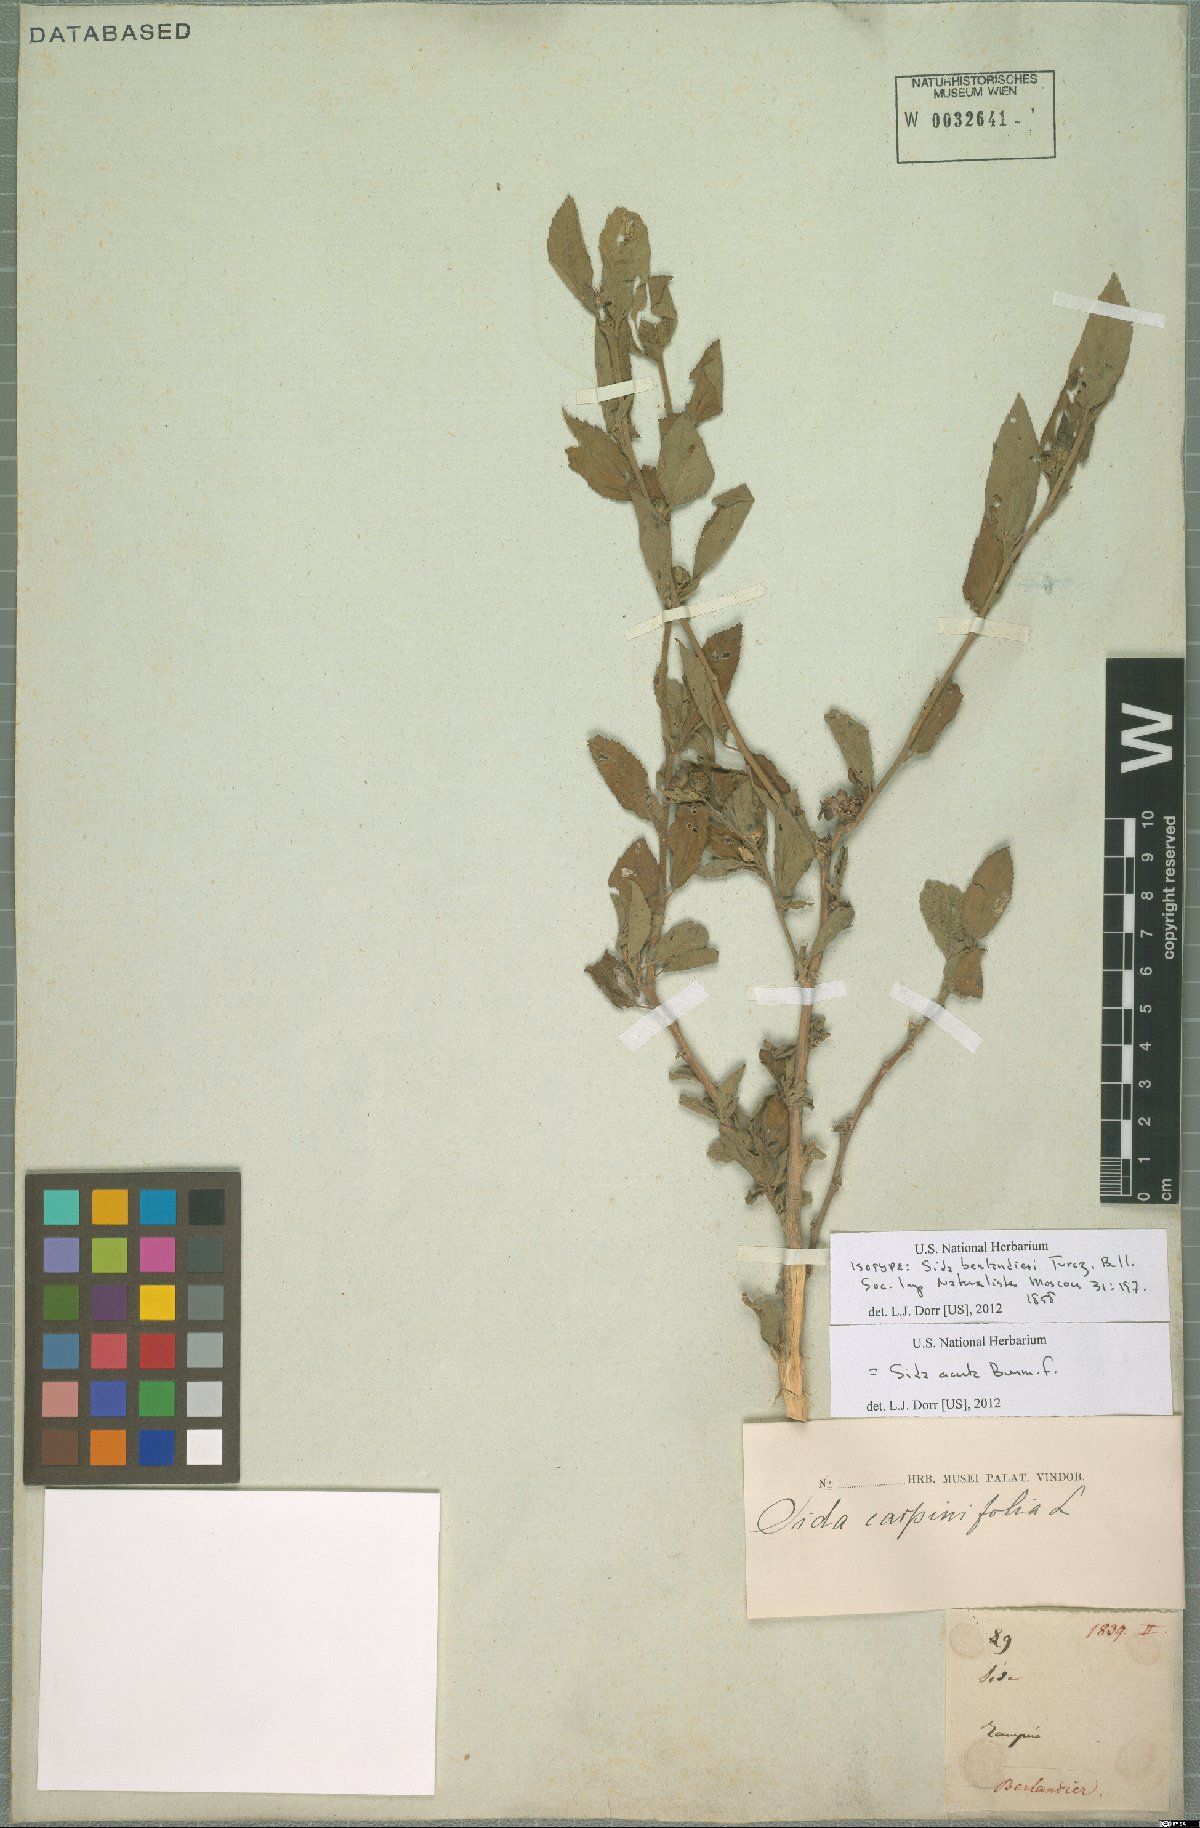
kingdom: Plantae
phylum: Tracheophyta
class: Magnoliopsida
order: Malvales
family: Malvaceae
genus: Sida
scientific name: Sida acuta
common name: Common wireweed
